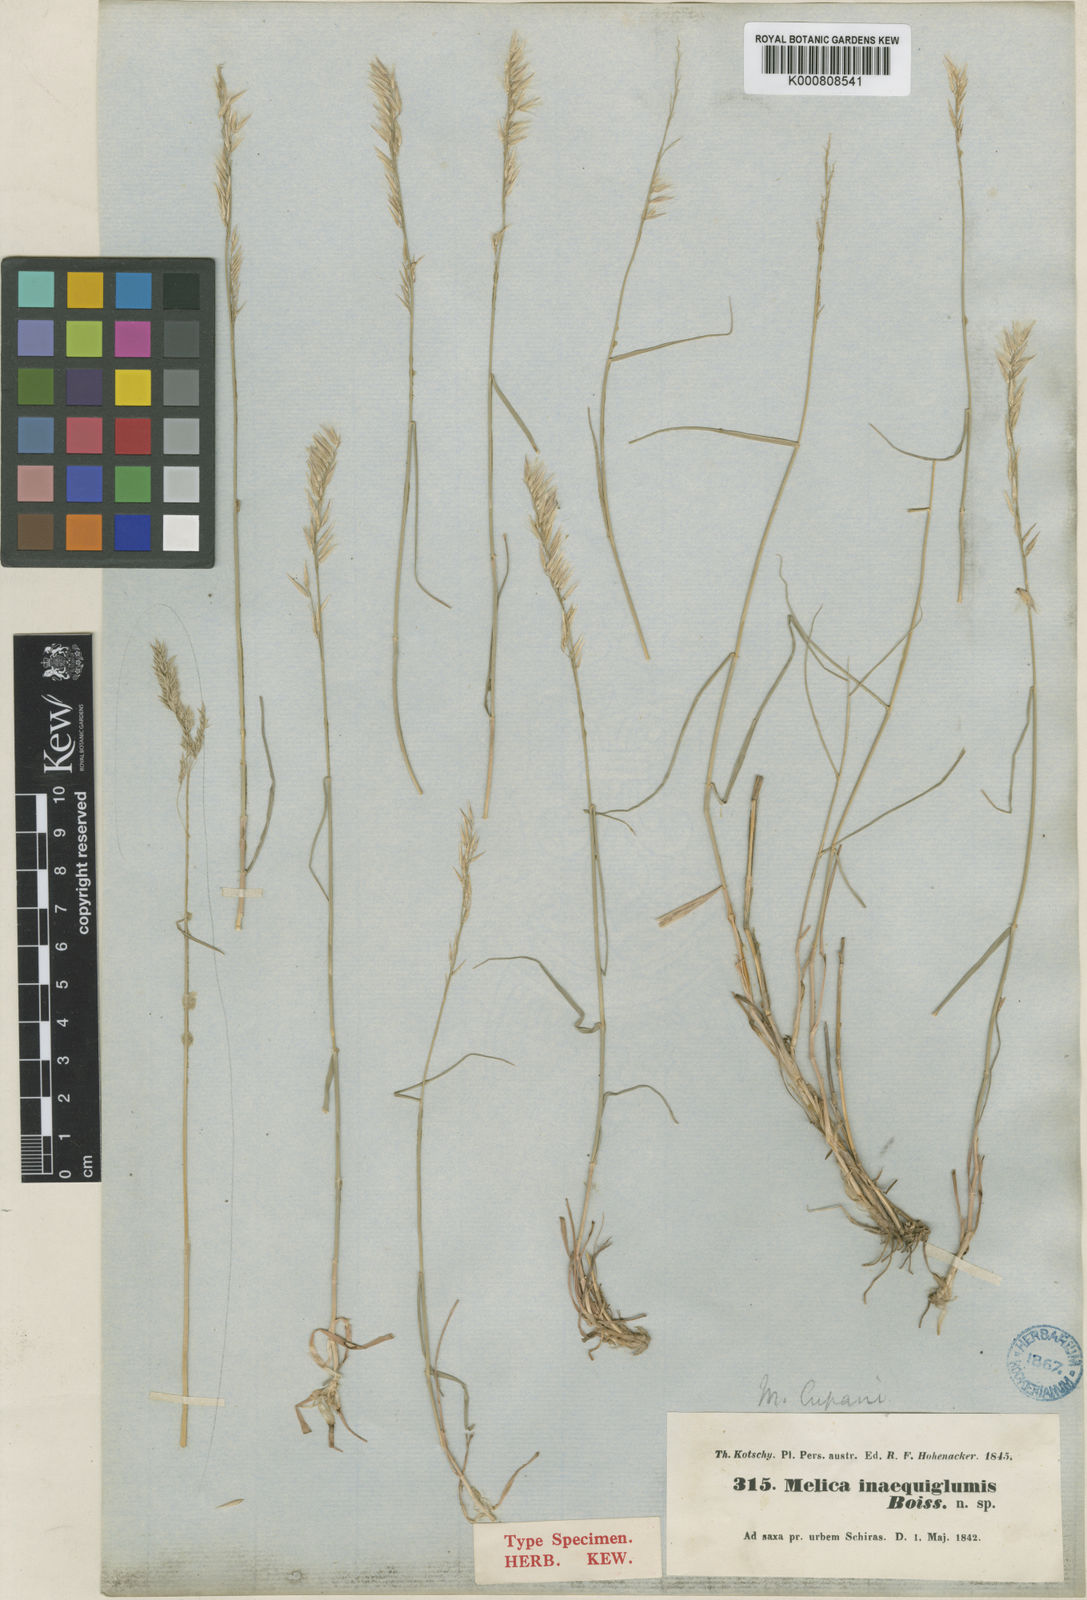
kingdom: Plantae
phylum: Tracheophyta
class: Liliopsida
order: Poales
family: Poaceae
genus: Melica
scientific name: Melica persica
